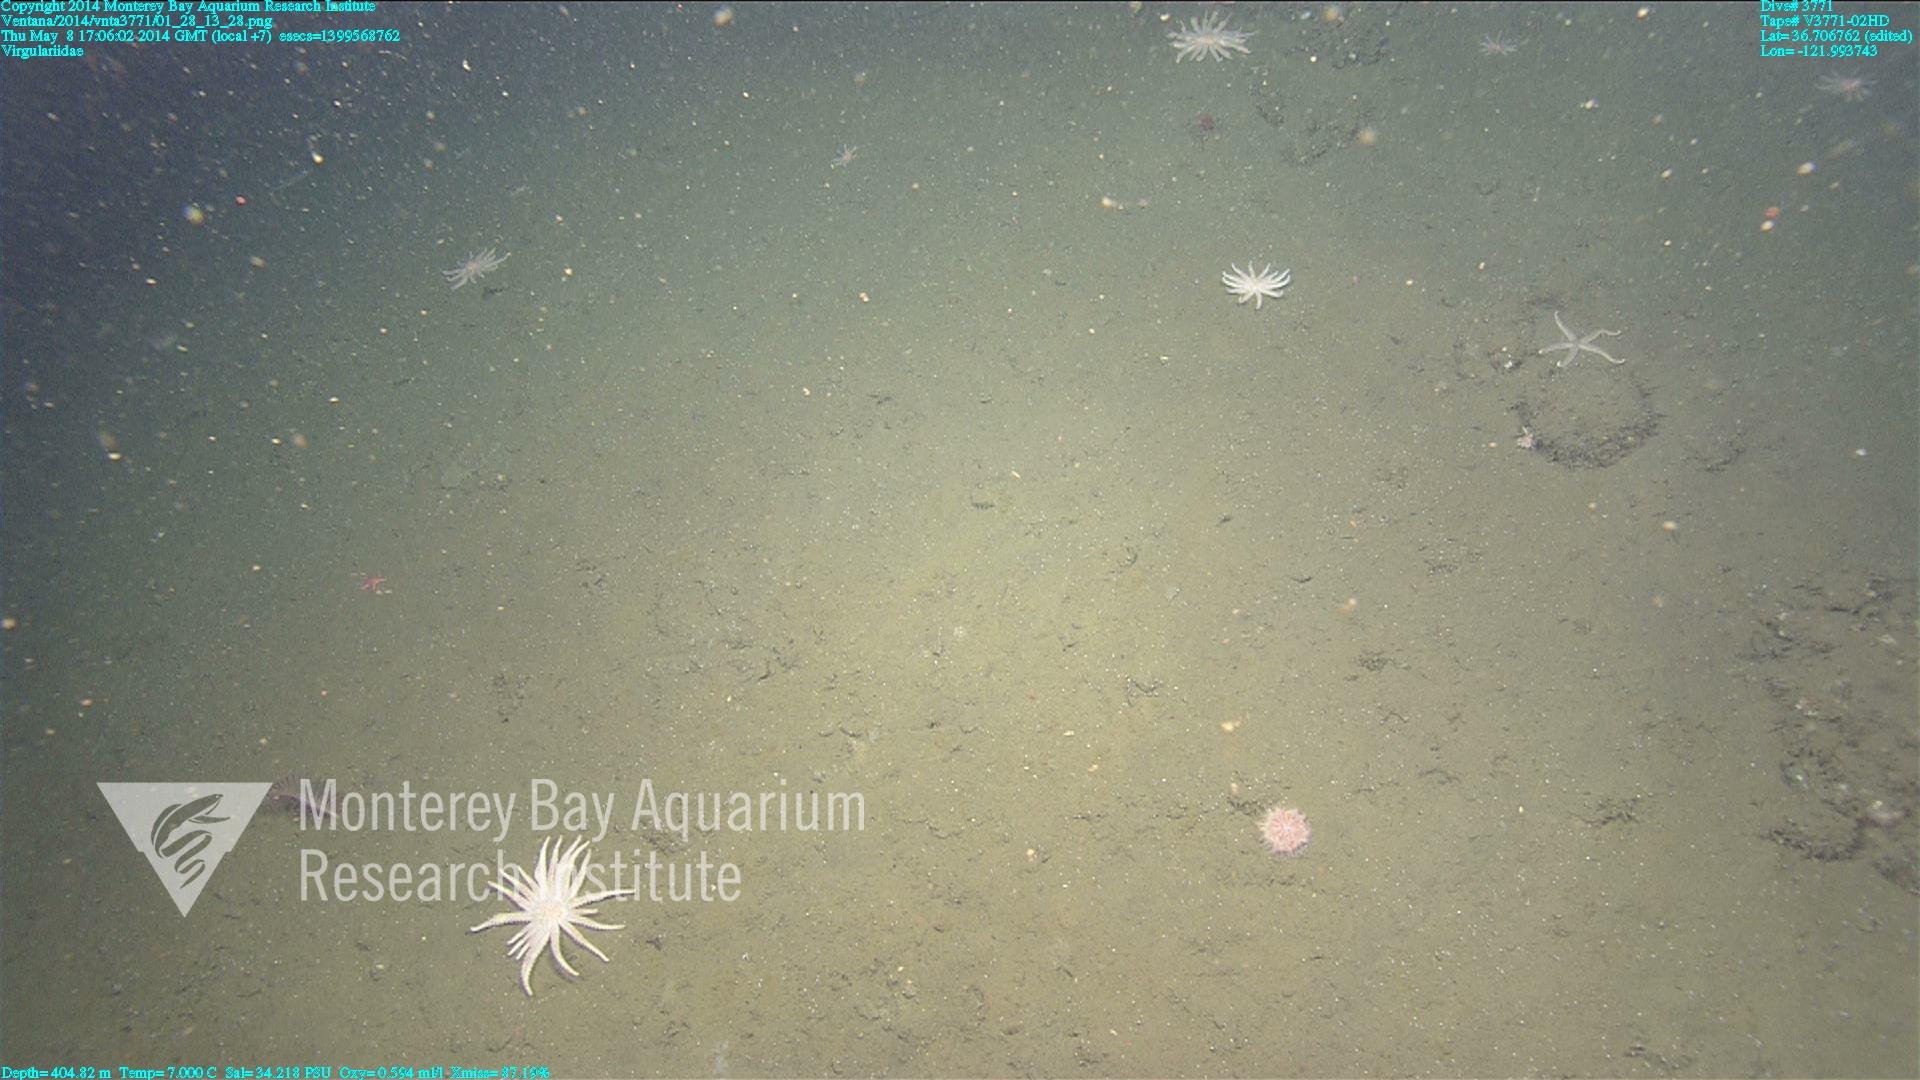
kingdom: Animalia
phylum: Cnidaria
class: Anthozoa
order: Scleralcyonacea
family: Virgulariidae
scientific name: Virgulariidae
